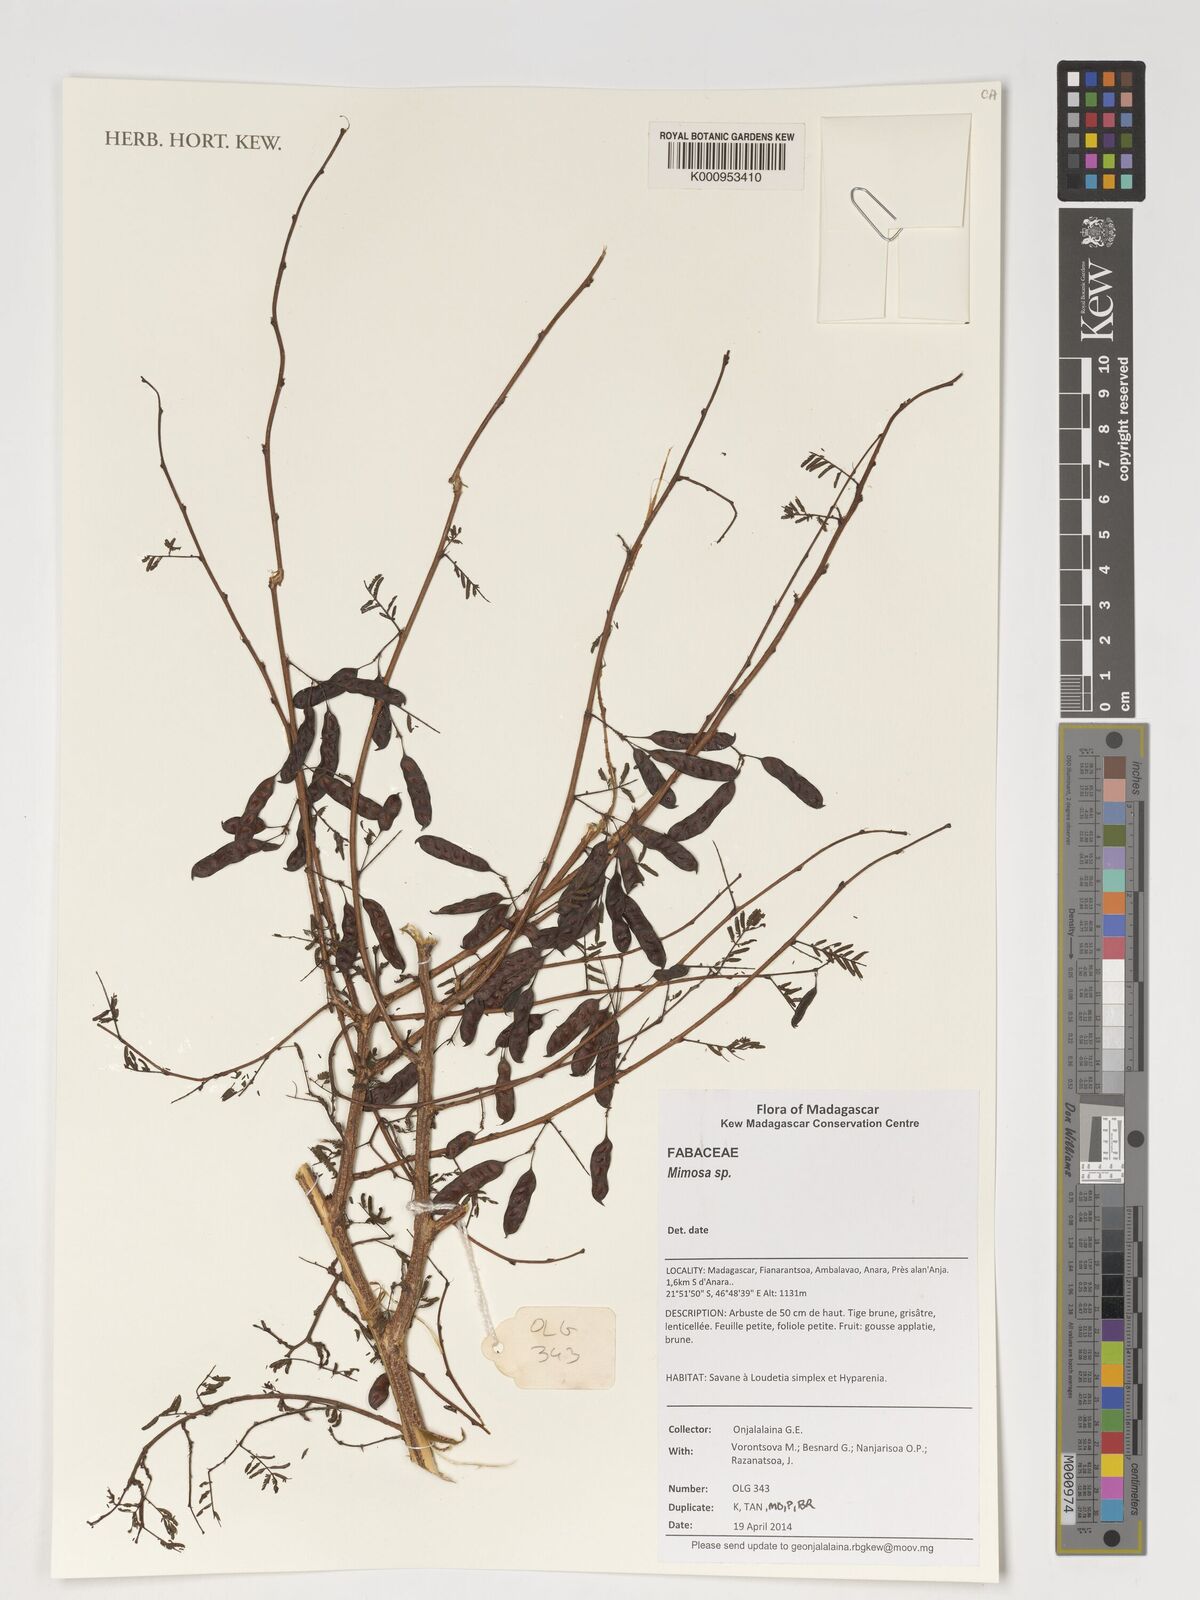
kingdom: Plantae
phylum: Tracheophyta
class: Magnoliopsida
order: Fabales
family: Fabaceae
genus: Mimosa
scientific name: Mimosa
